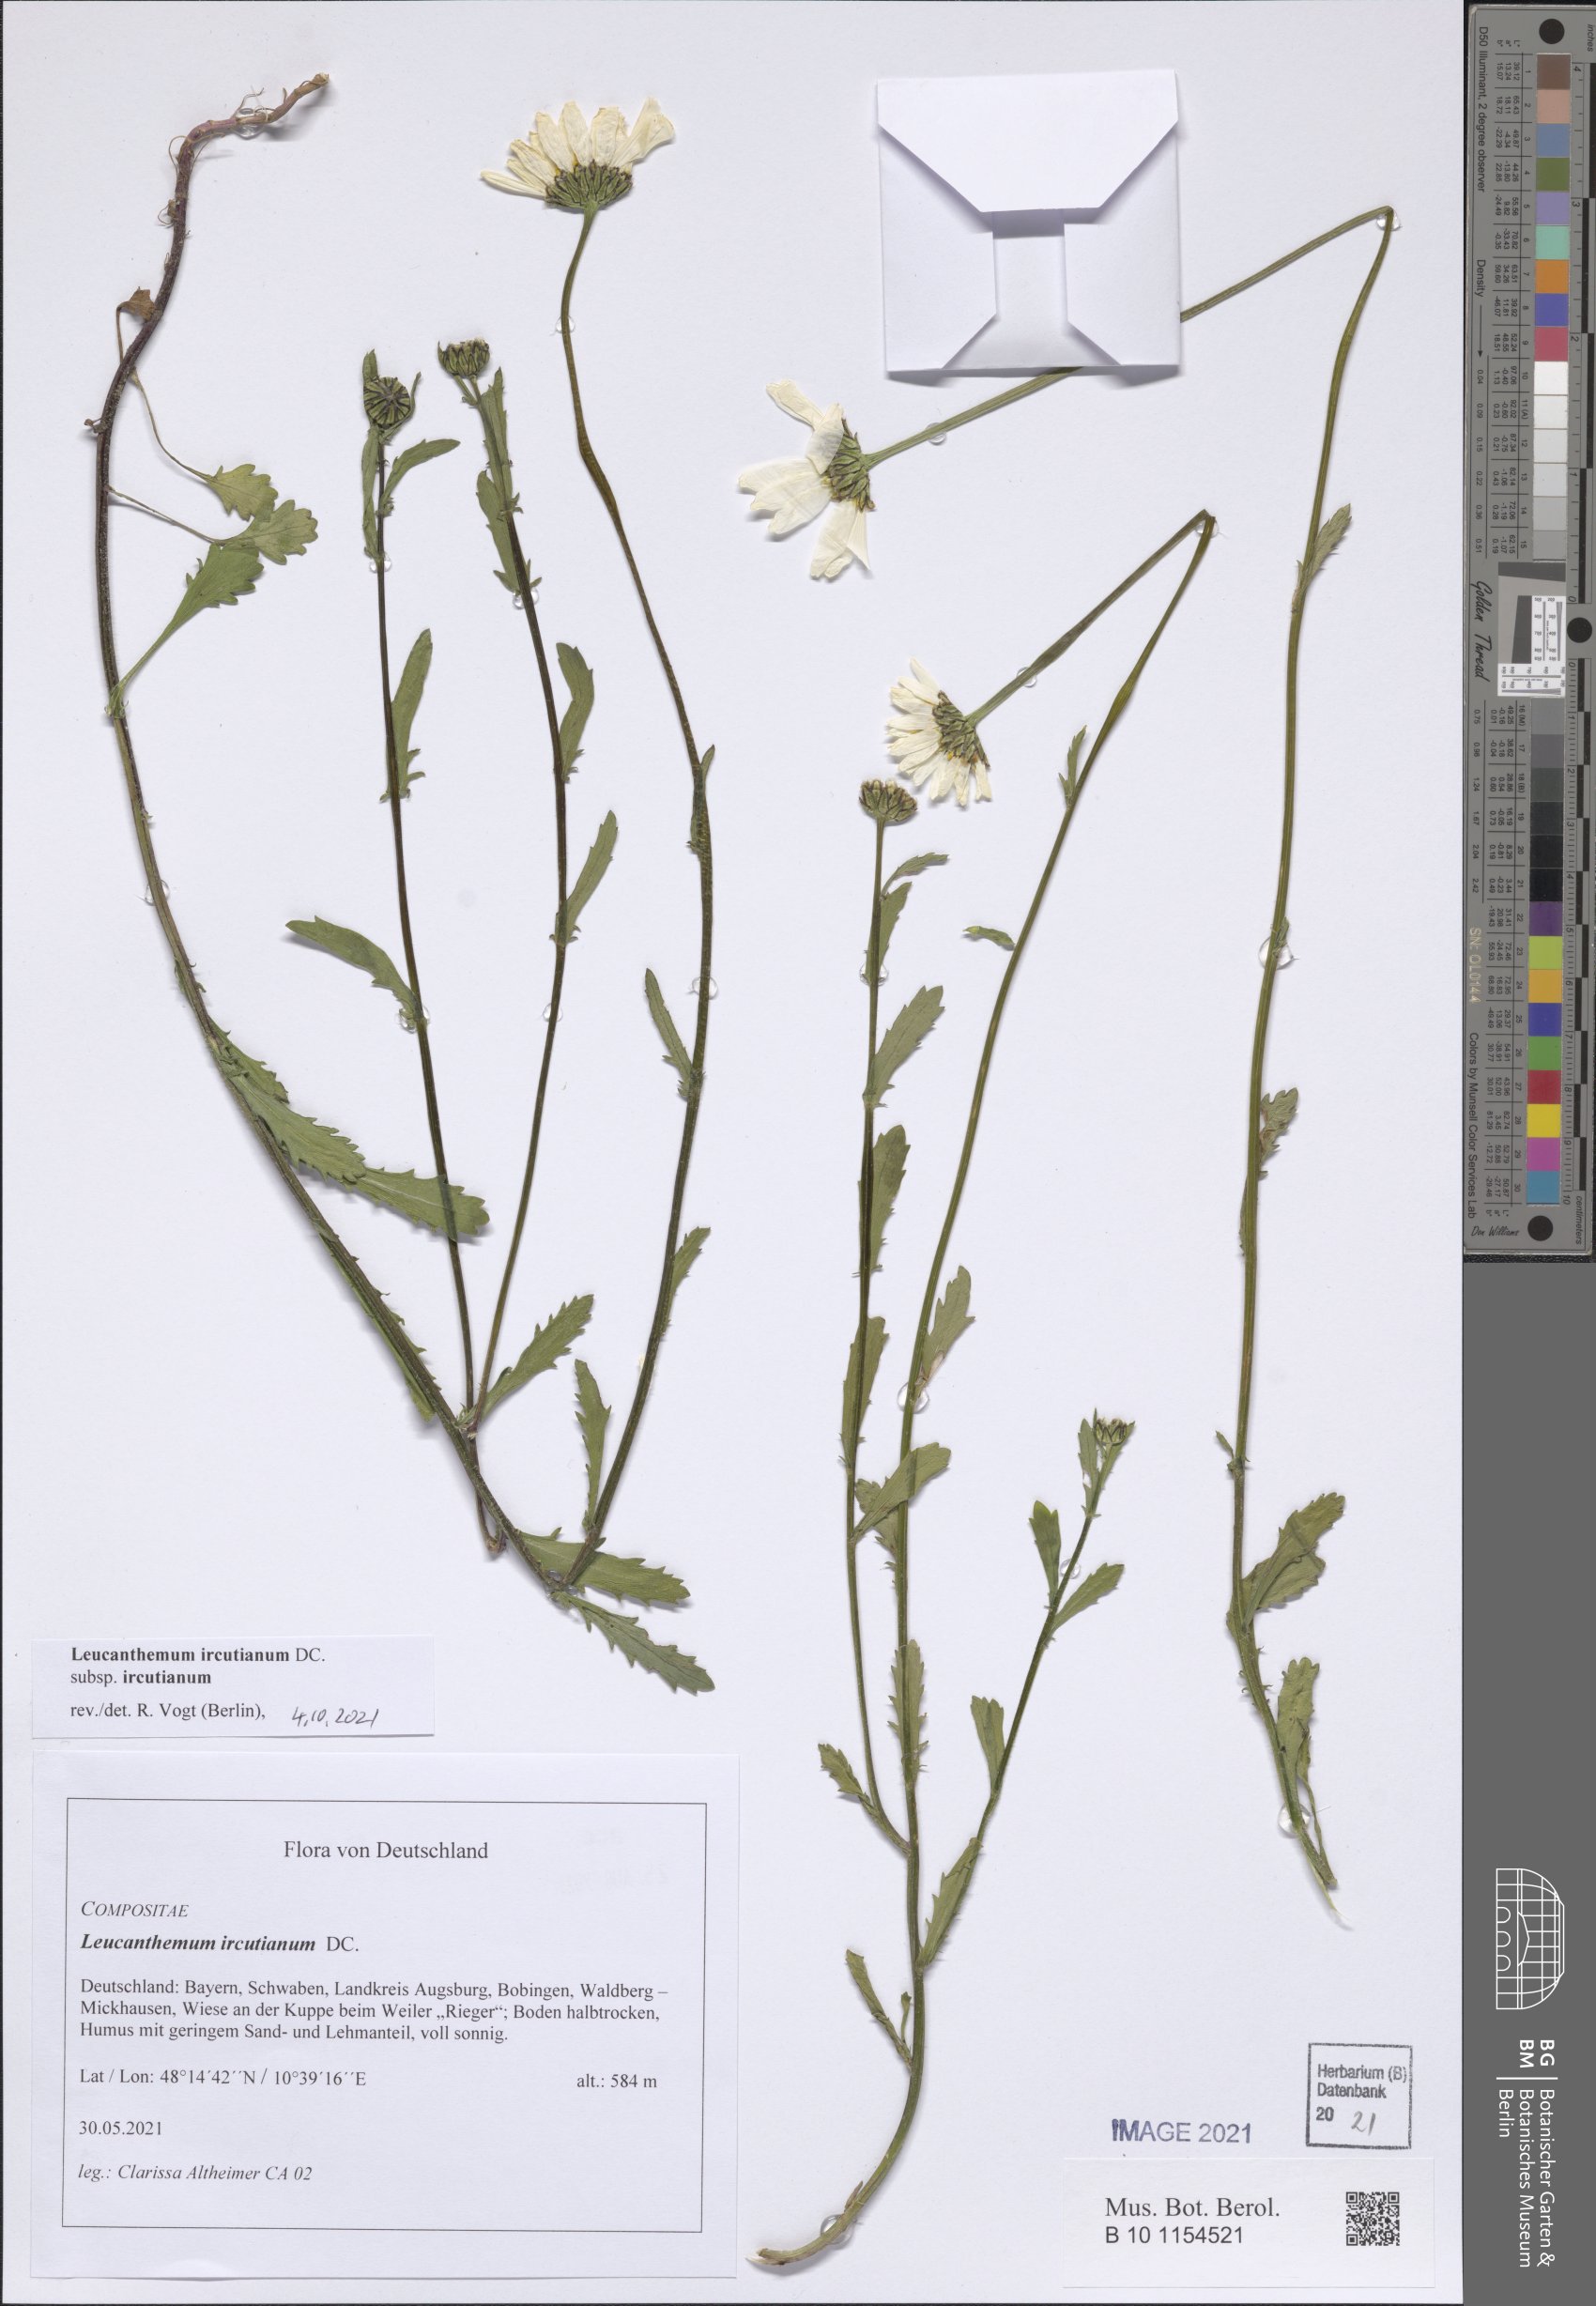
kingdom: Plantae
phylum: Tracheophyta
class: Magnoliopsida
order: Asterales
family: Asteraceae
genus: Leucanthemum
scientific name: Leucanthemum ircutianum
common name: Daisy
